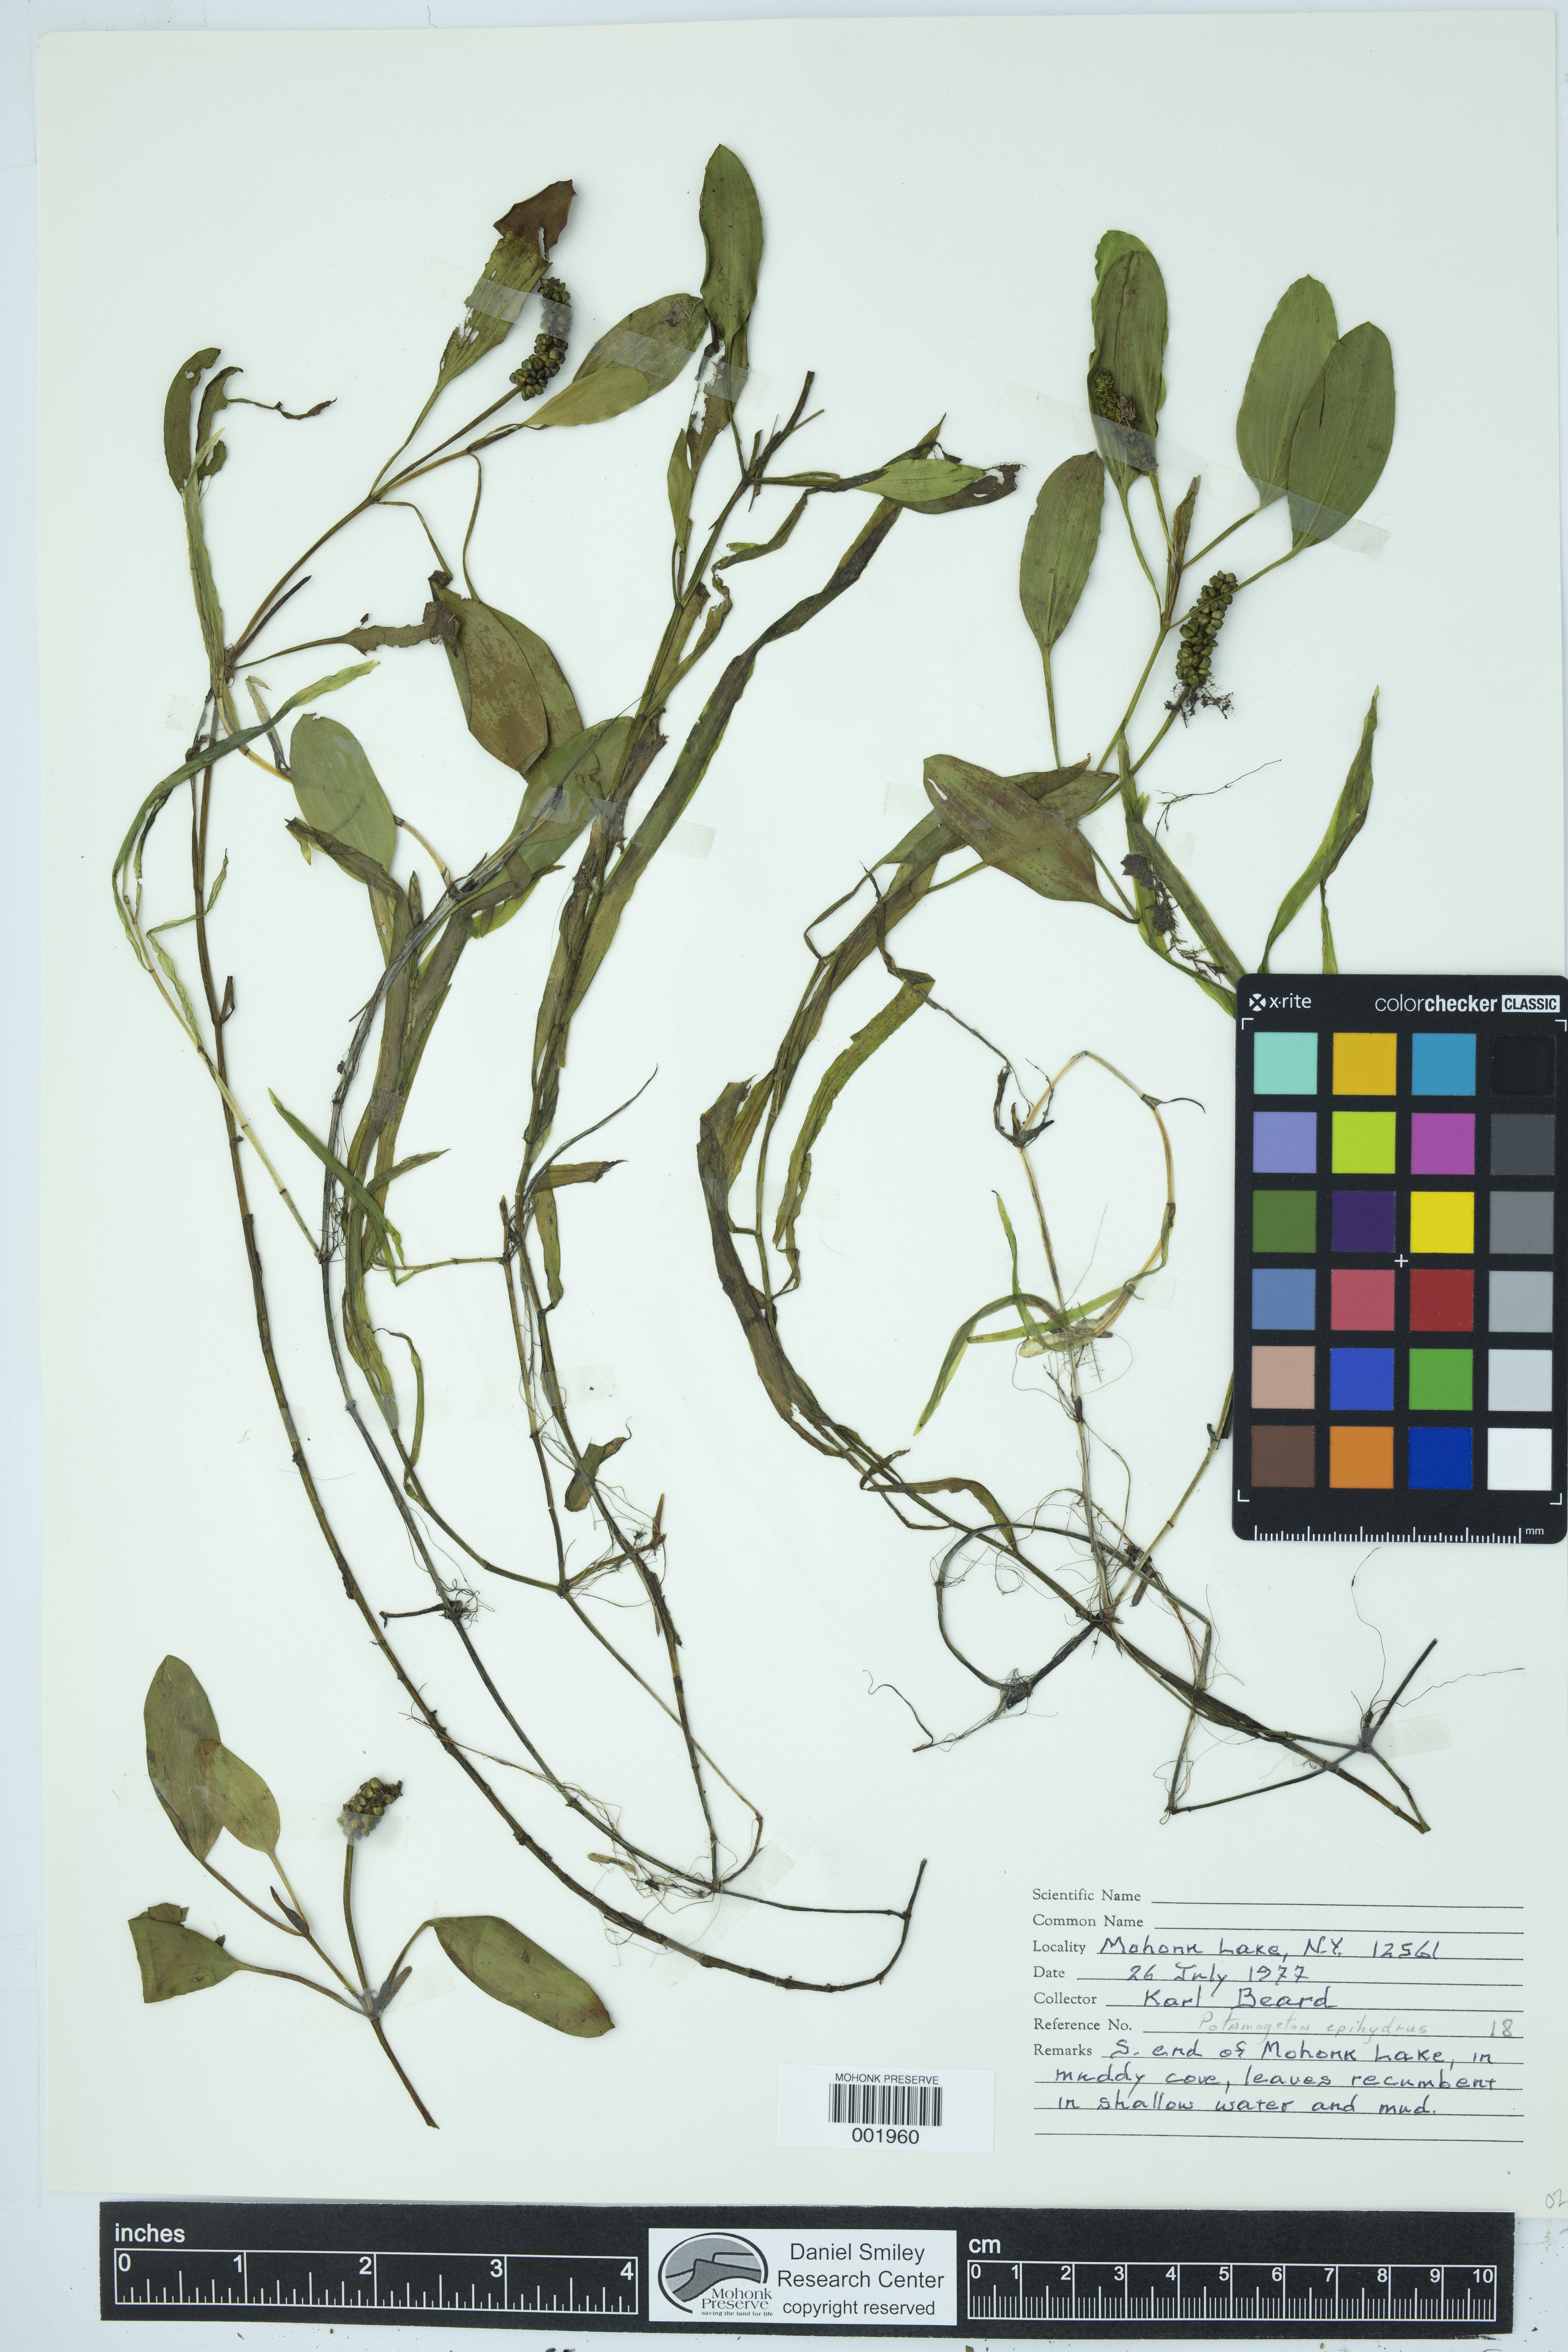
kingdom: Plantae
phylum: Tracheophyta
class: Liliopsida
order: Alismatales
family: Potamogetonaceae
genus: Potamogeton
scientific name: Potamogeton epihydrus
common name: American pondweed
